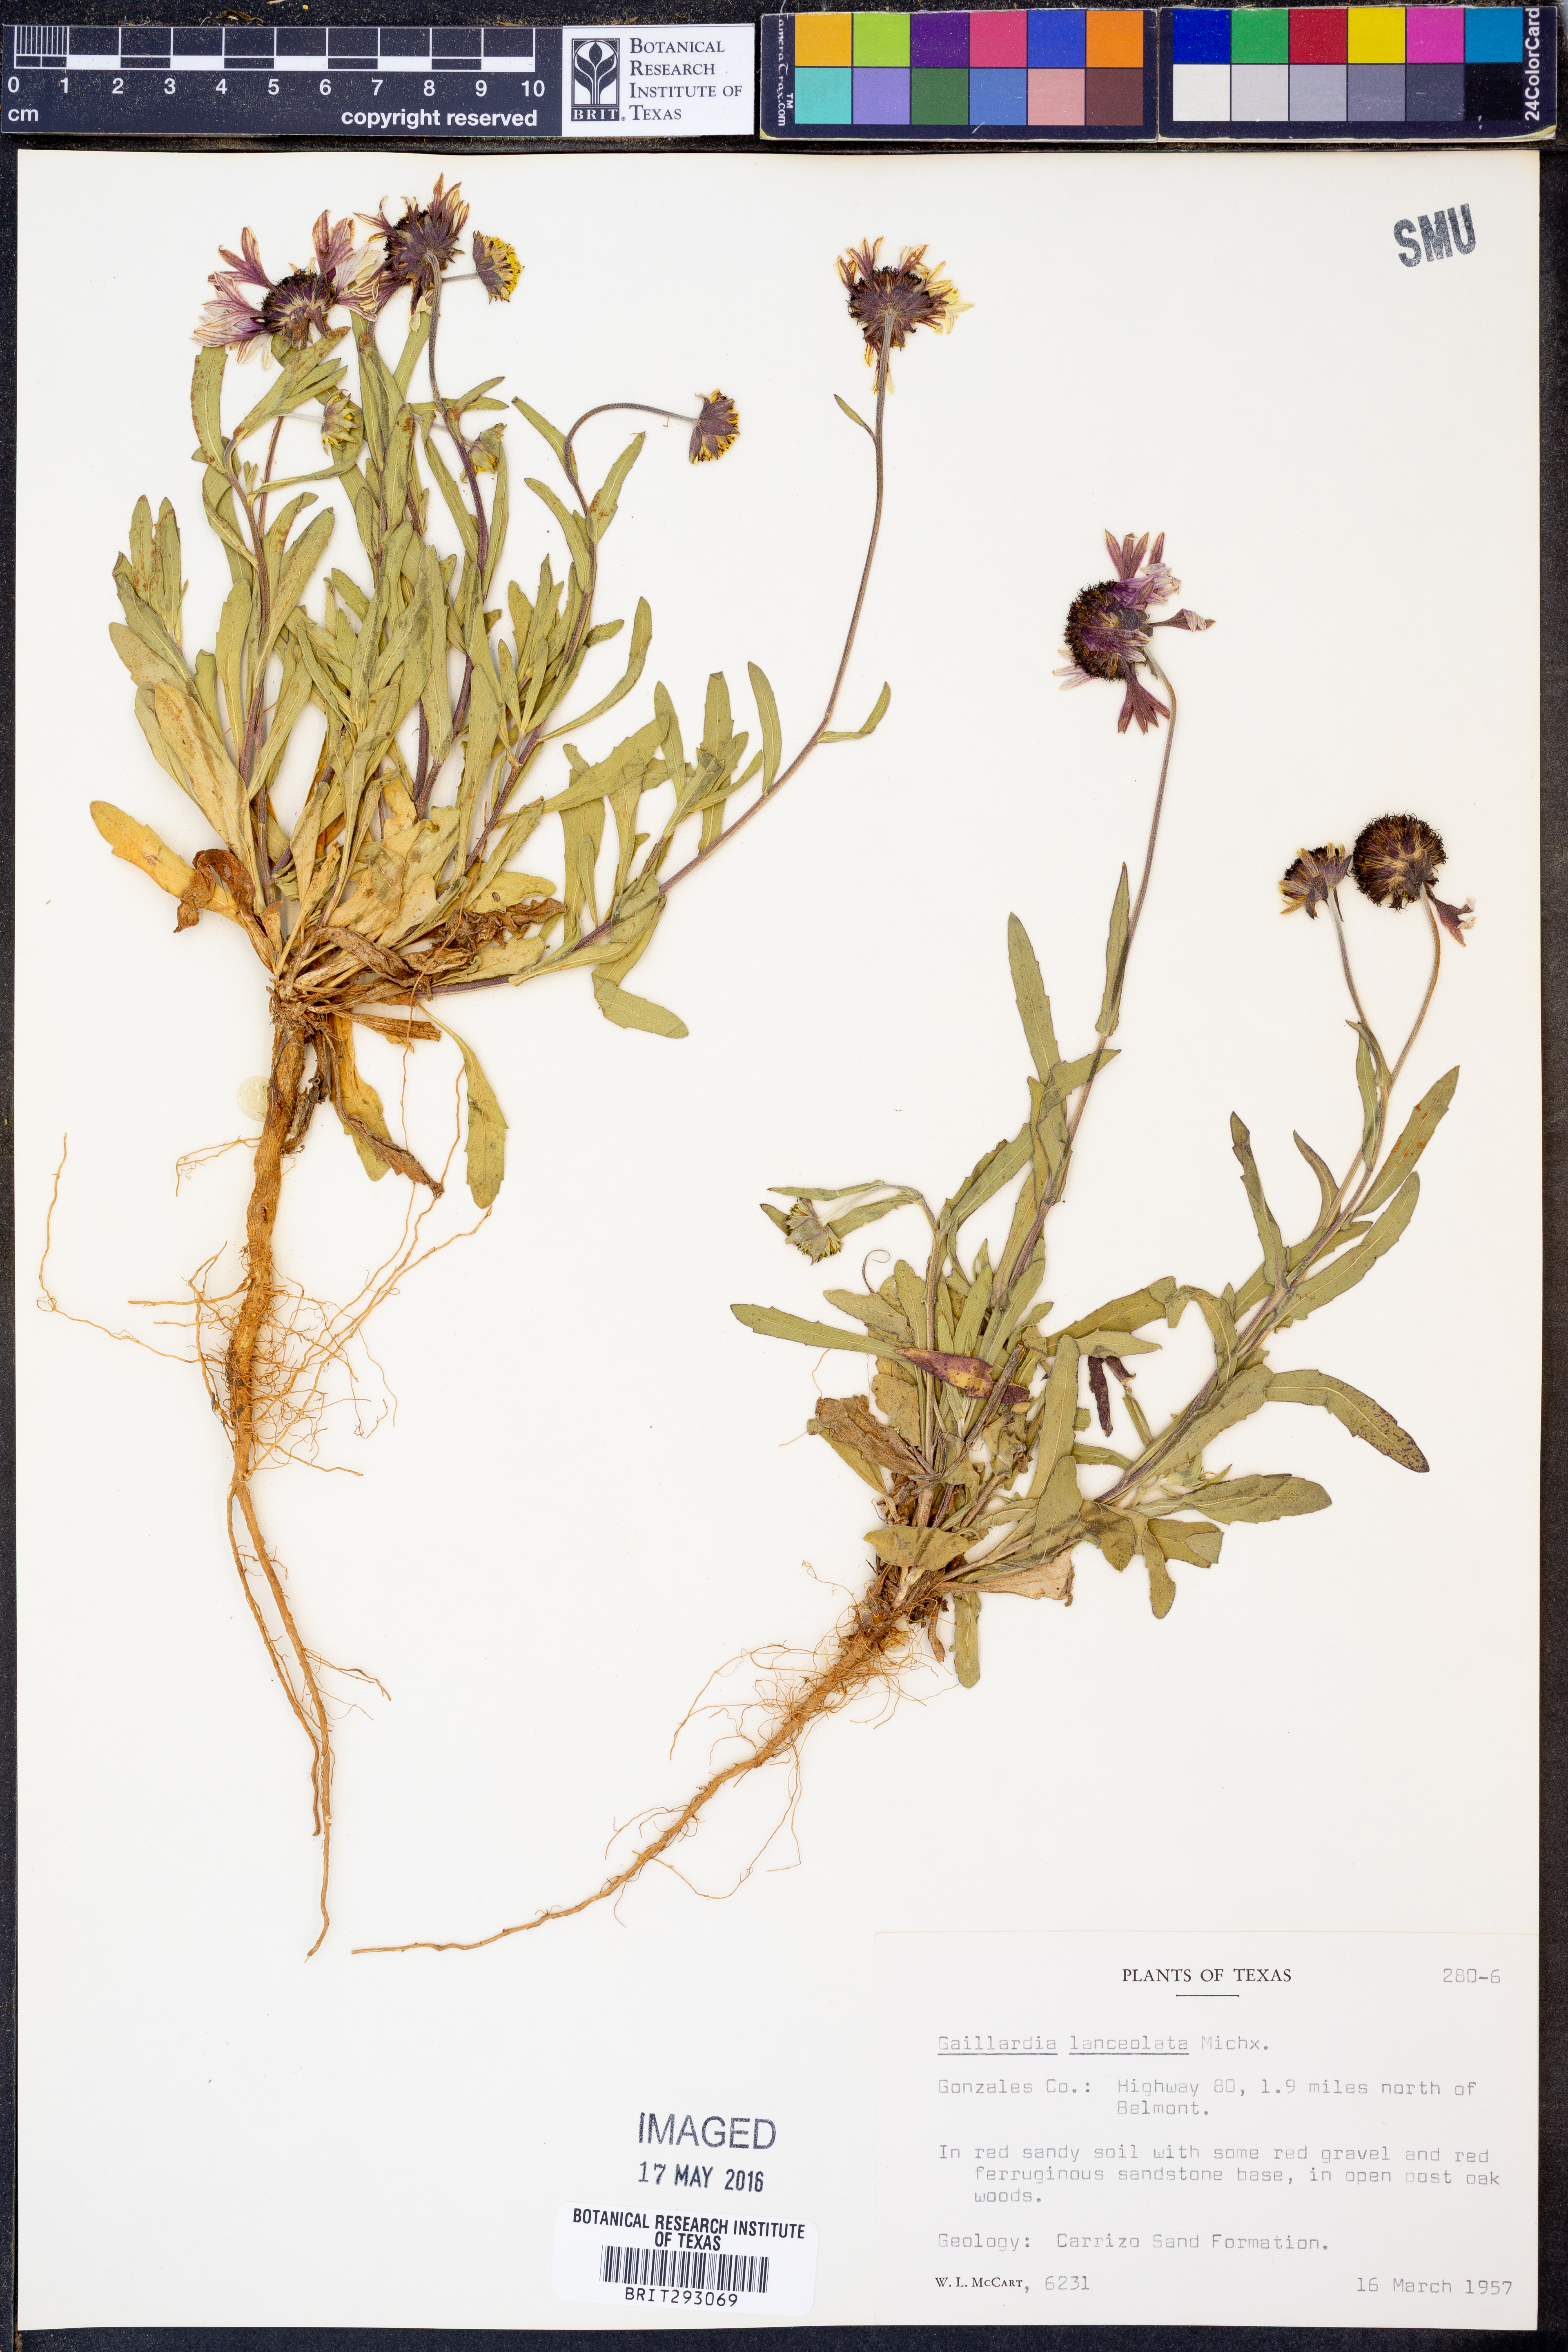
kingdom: Plantae
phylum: Tracheophyta
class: Magnoliopsida
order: Asterales
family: Asteraceae
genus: Gaillardia
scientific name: Gaillardia aestivalis
